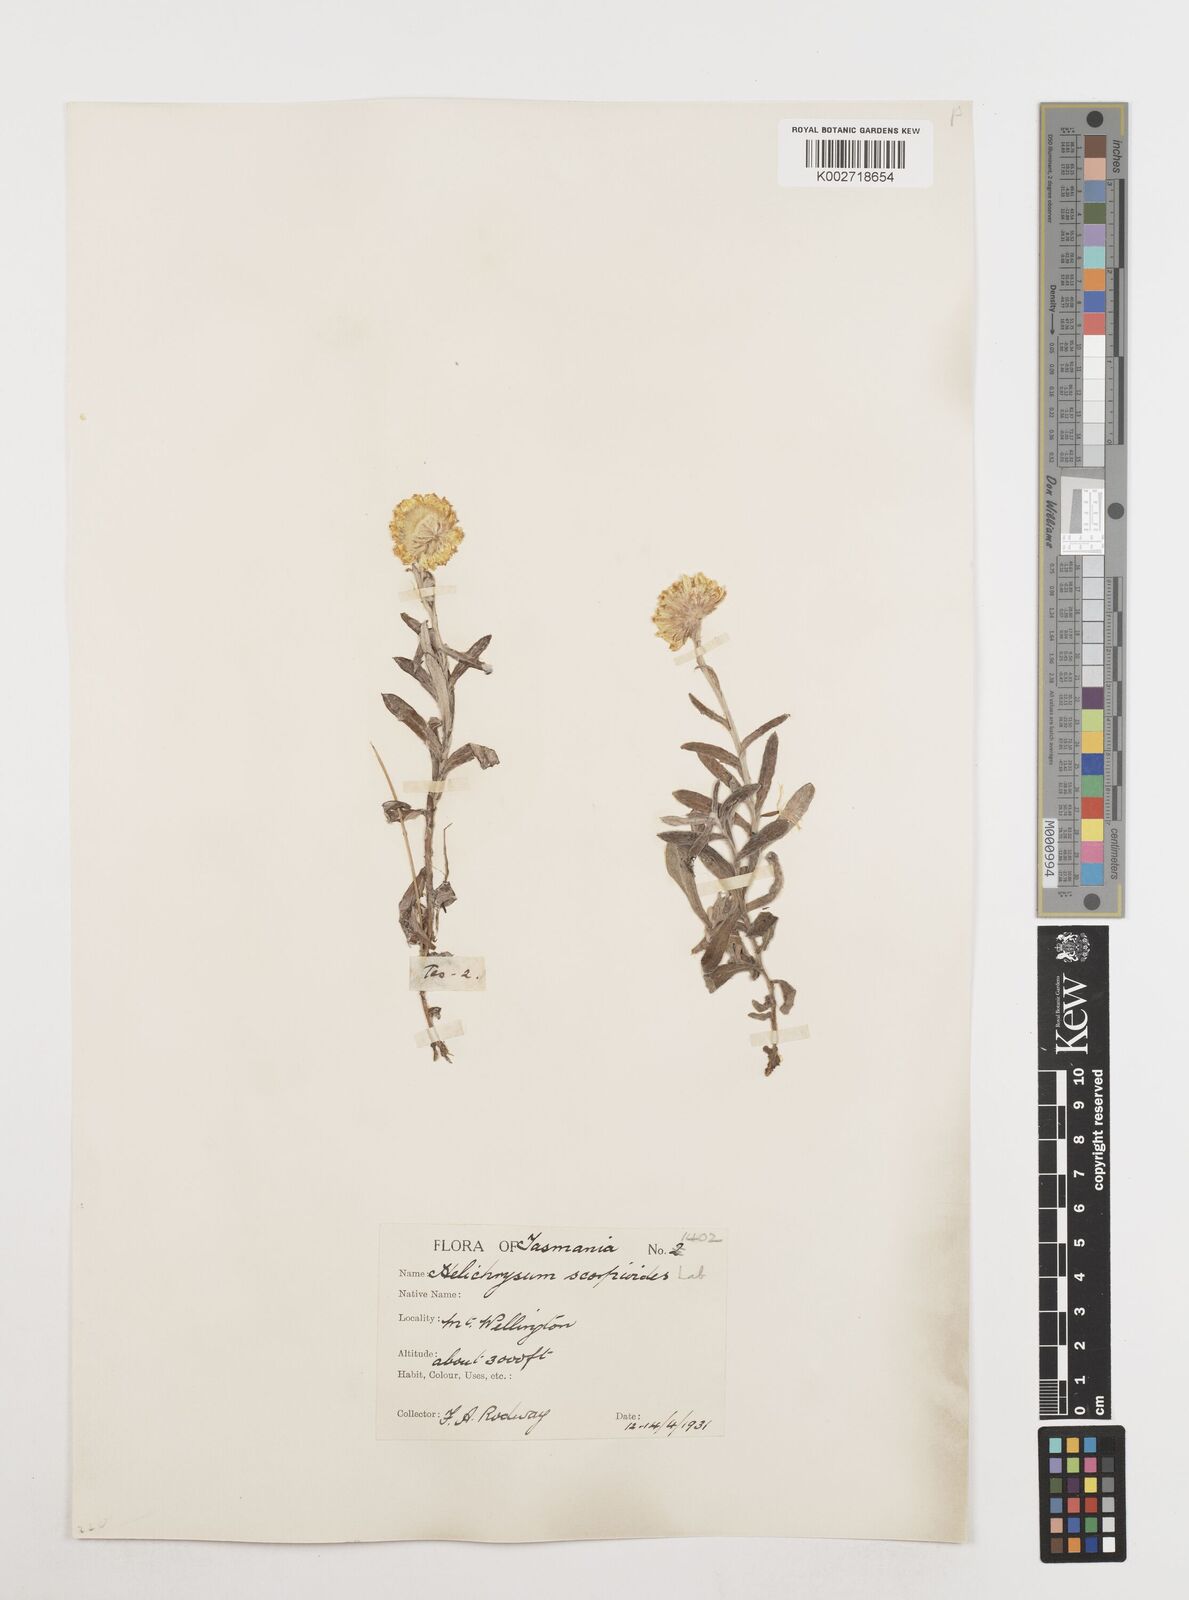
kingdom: Plantae
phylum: Tracheophyta
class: Magnoliopsida
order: Asterales
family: Asteraceae
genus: Coronidium
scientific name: Coronidium scorpioides
